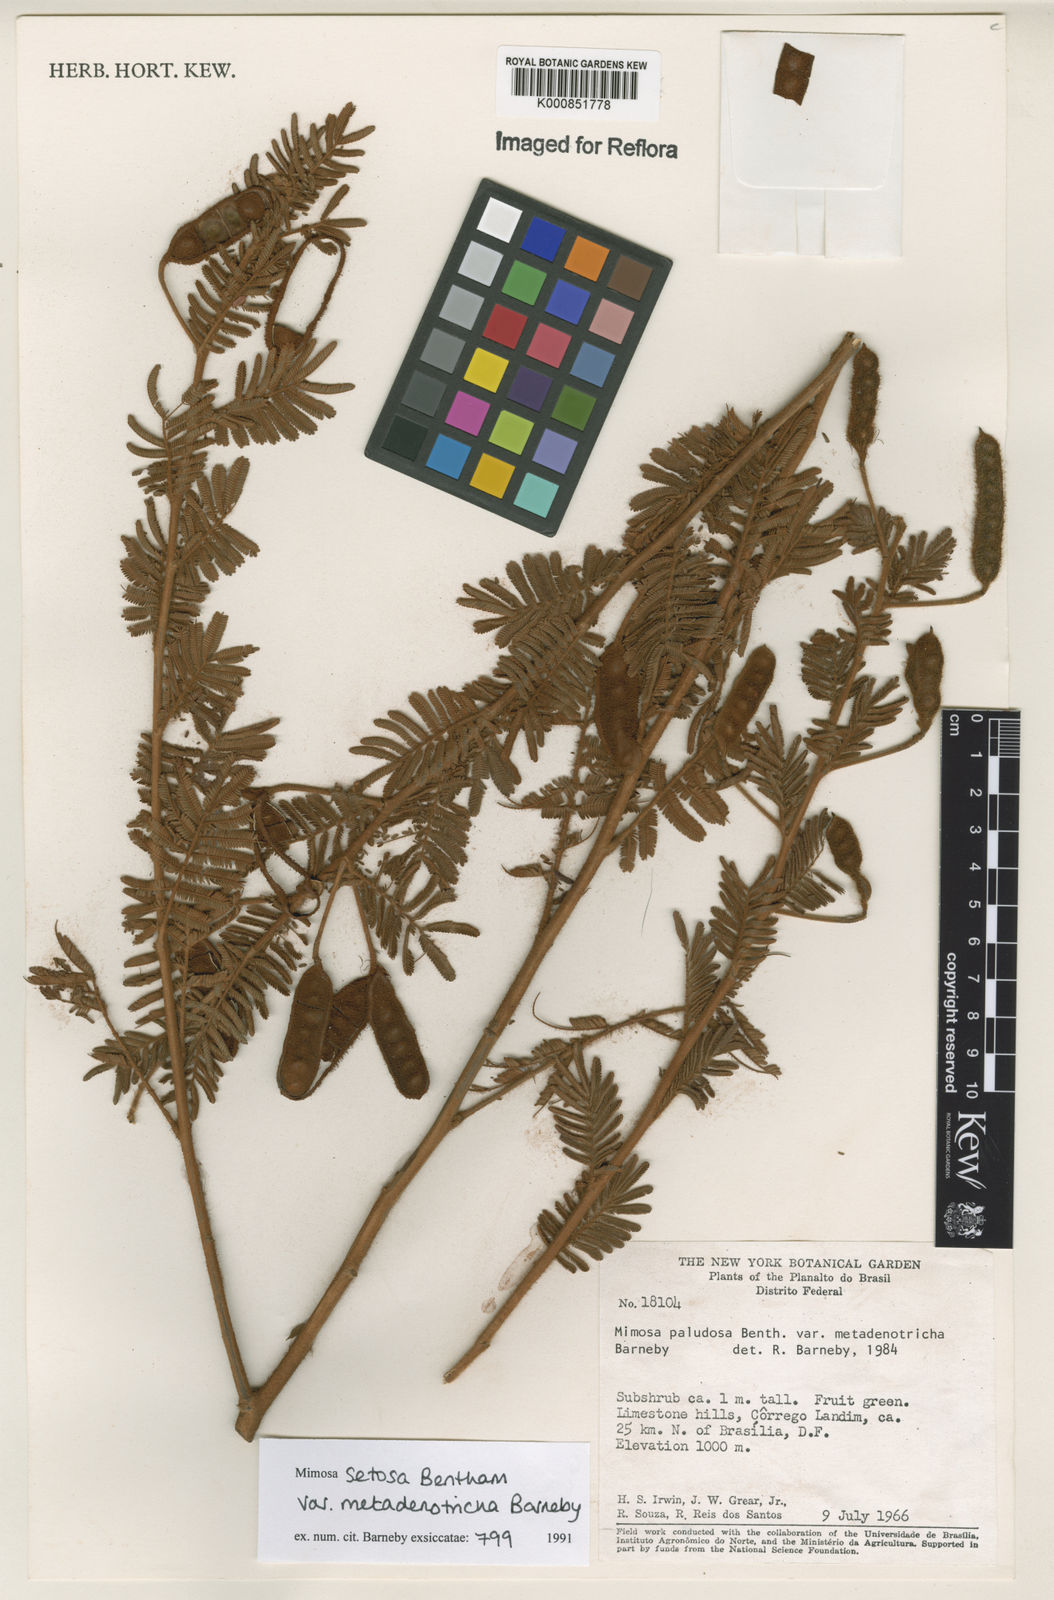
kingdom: Plantae
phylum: Tracheophyta
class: Magnoliopsida
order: Fabales
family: Fabaceae
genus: Mimosa
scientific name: Mimosa setosa
